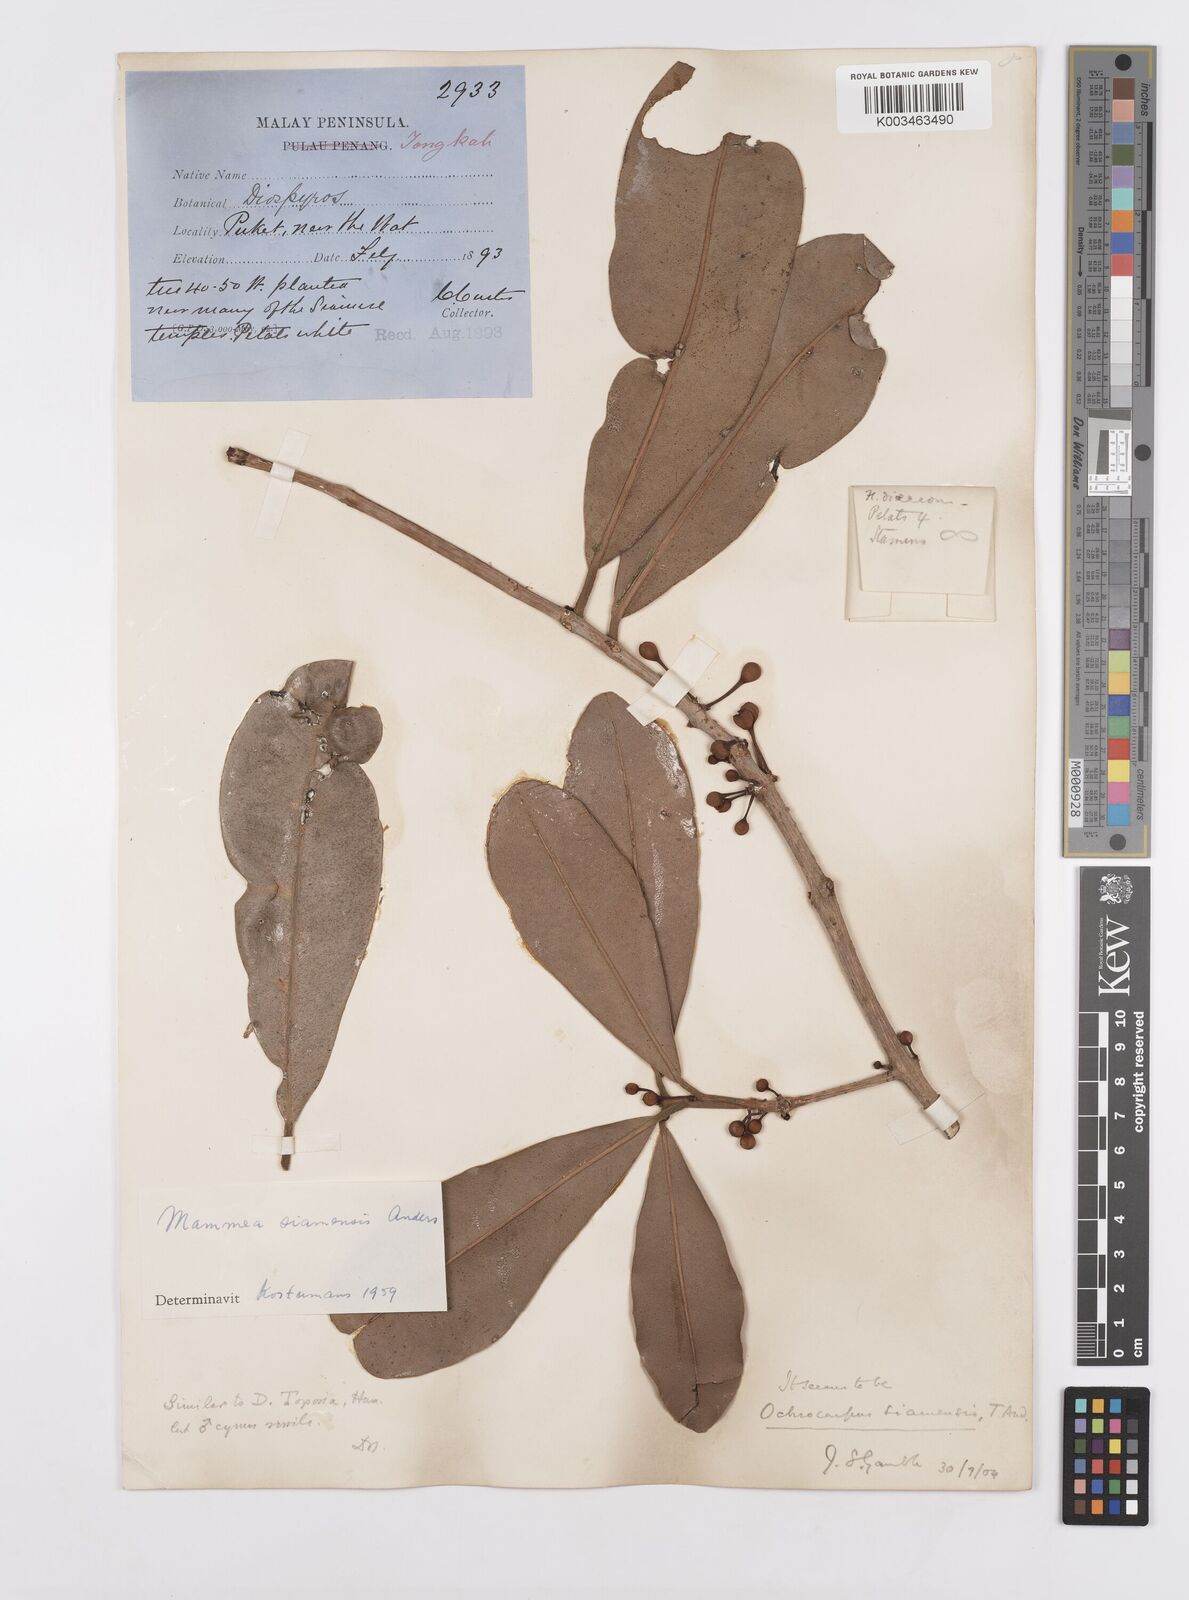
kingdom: Plantae
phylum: Tracheophyta
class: Magnoliopsida
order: Malpighiales
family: Calophyllaceae
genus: Mammea
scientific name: Mammea siamensis
